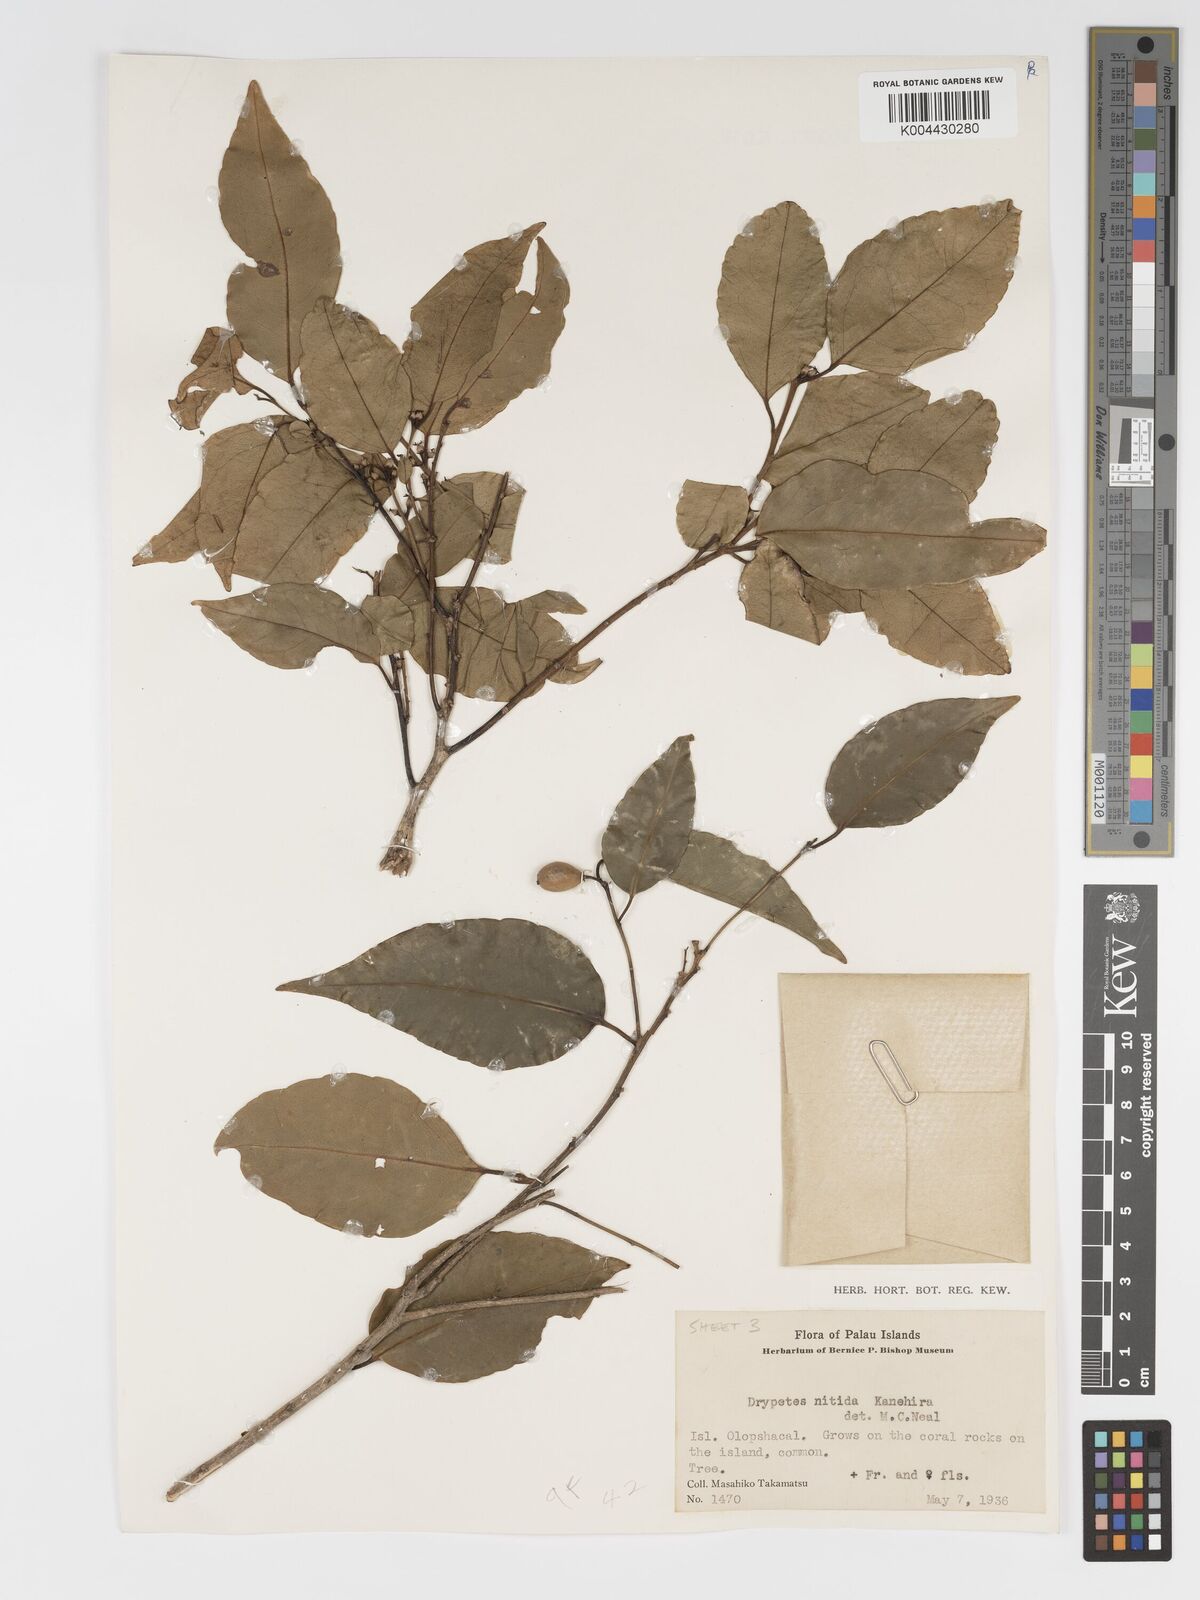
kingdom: Plantae
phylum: Tracheophyta
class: Magnoliopsida
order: Malpighiales
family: Putranjivaceae
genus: Drypetes
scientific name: Drypetes nitida
